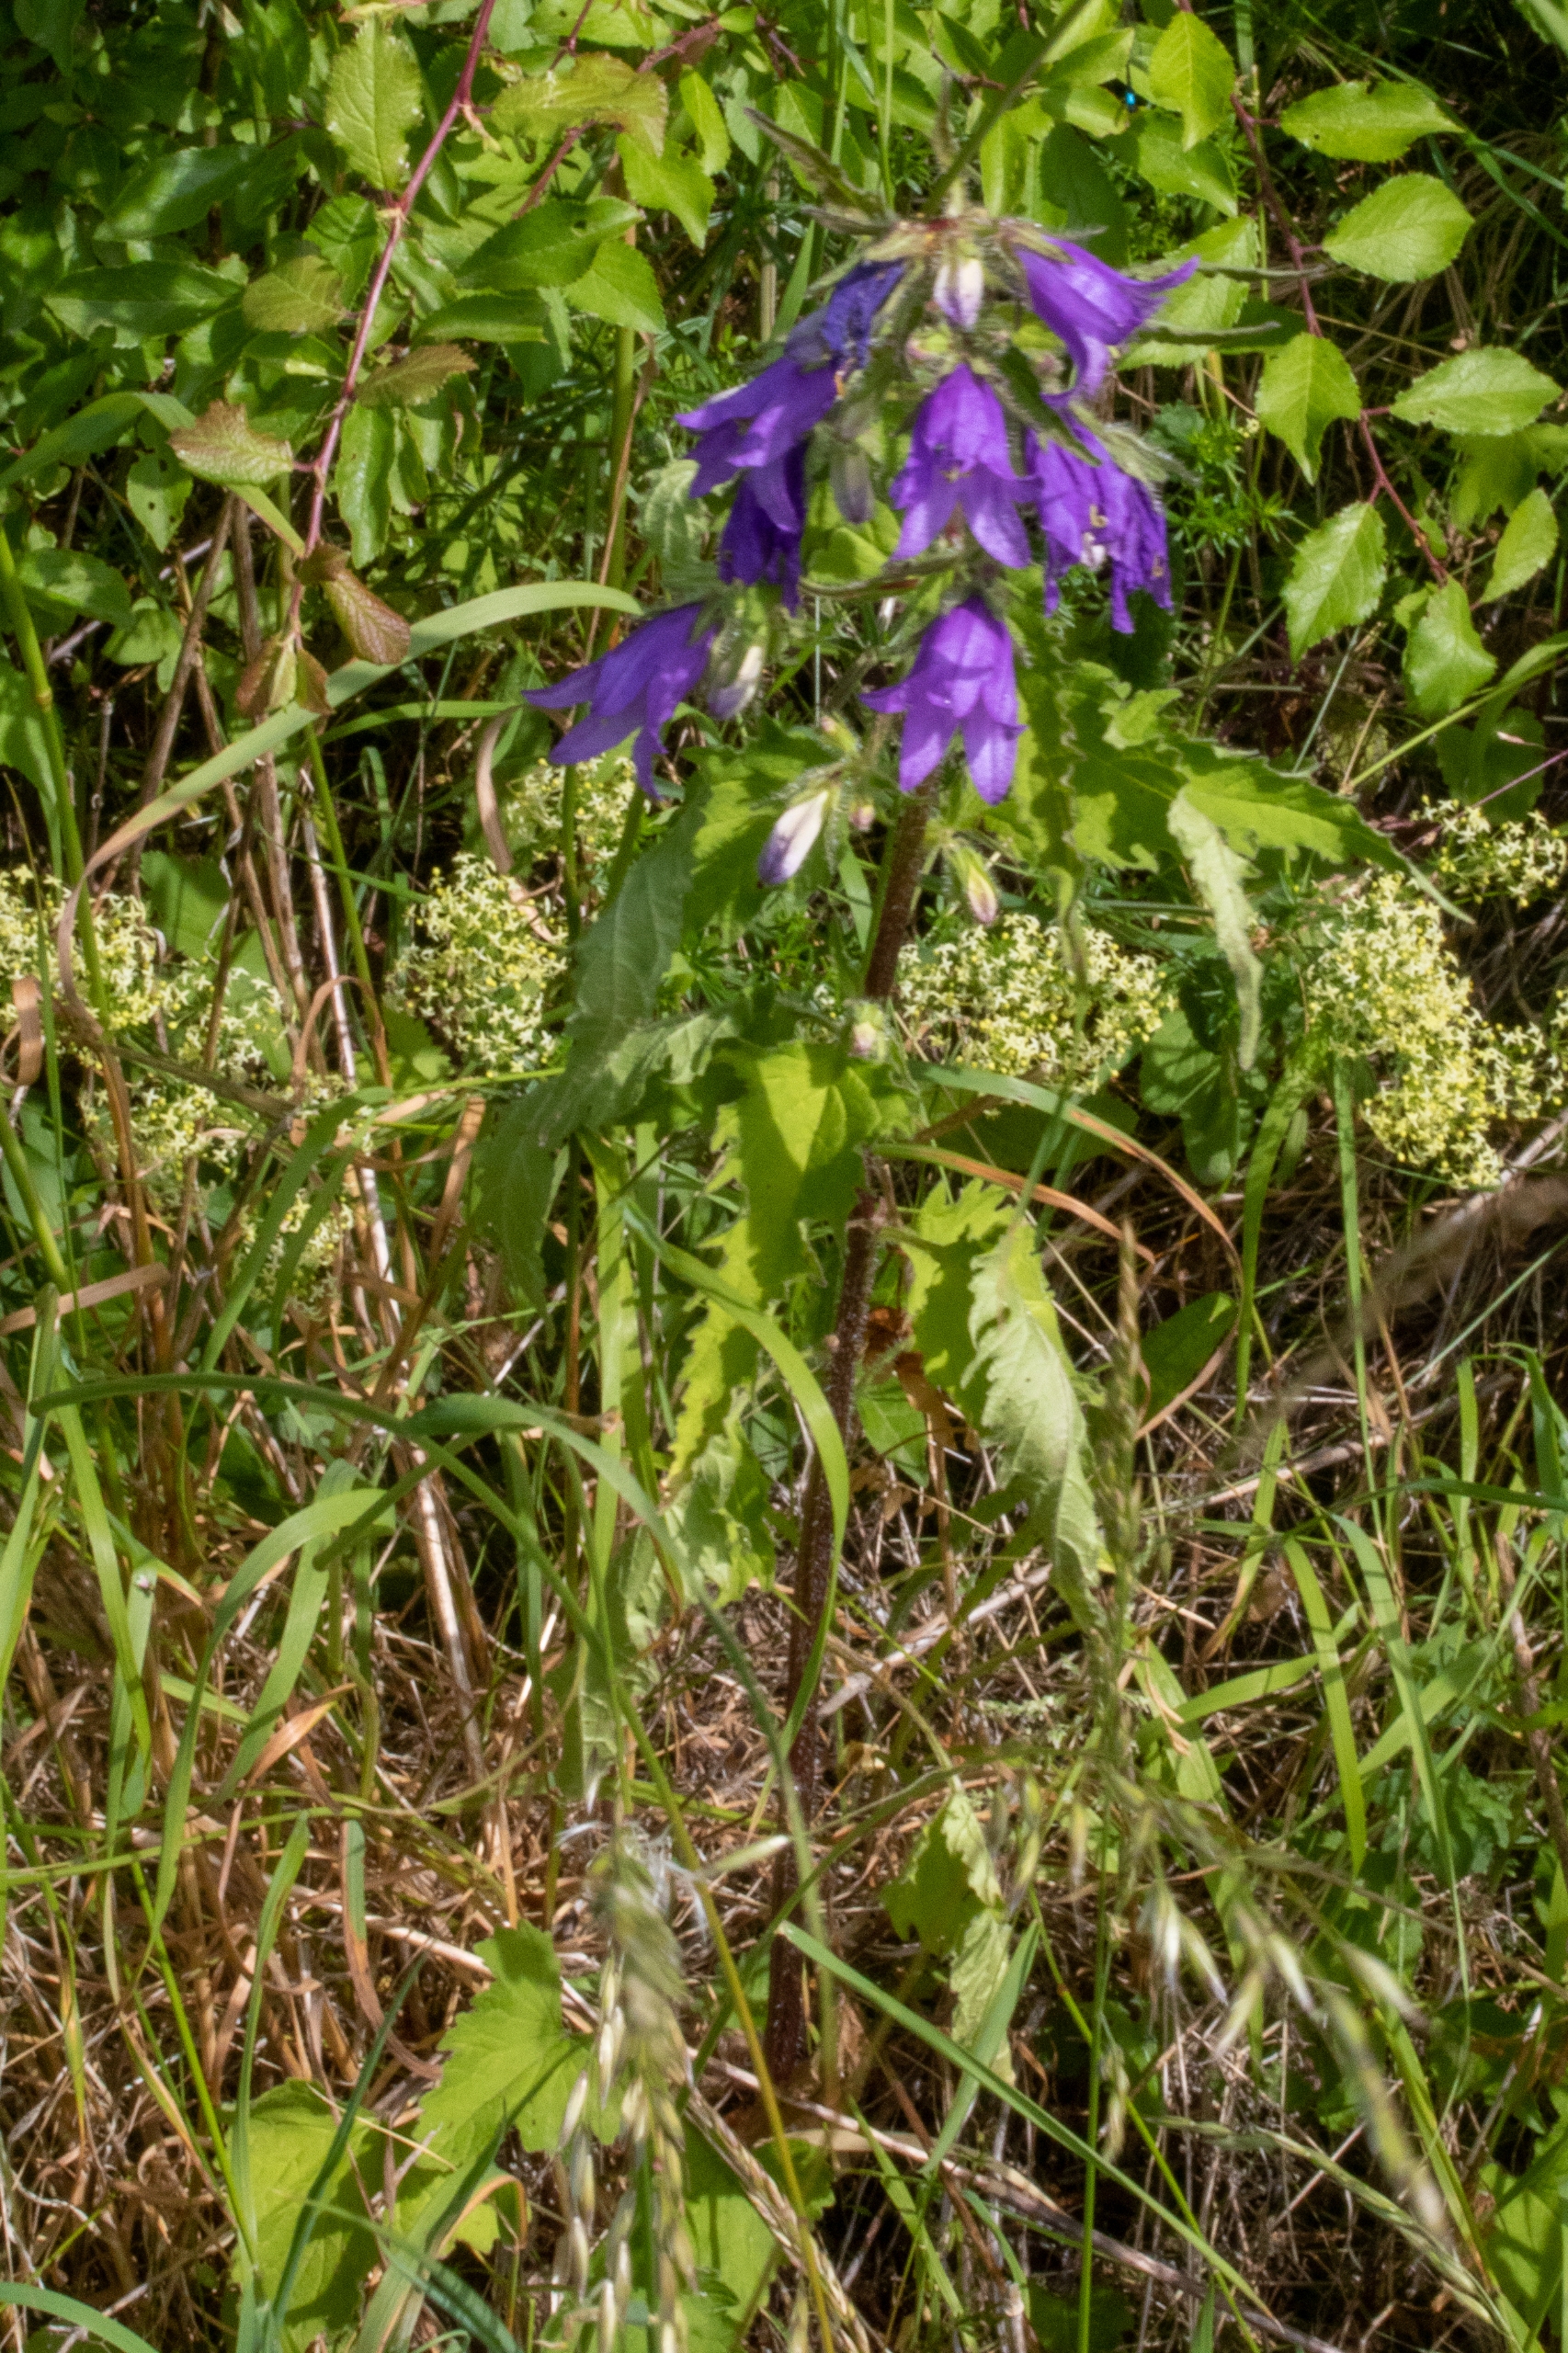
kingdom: Plantae
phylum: Tracheophyta
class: Magnoliopsida
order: Asterales
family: Campanulaceae
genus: Campanula
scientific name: Campanula trachelium
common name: Nælde-klokke
